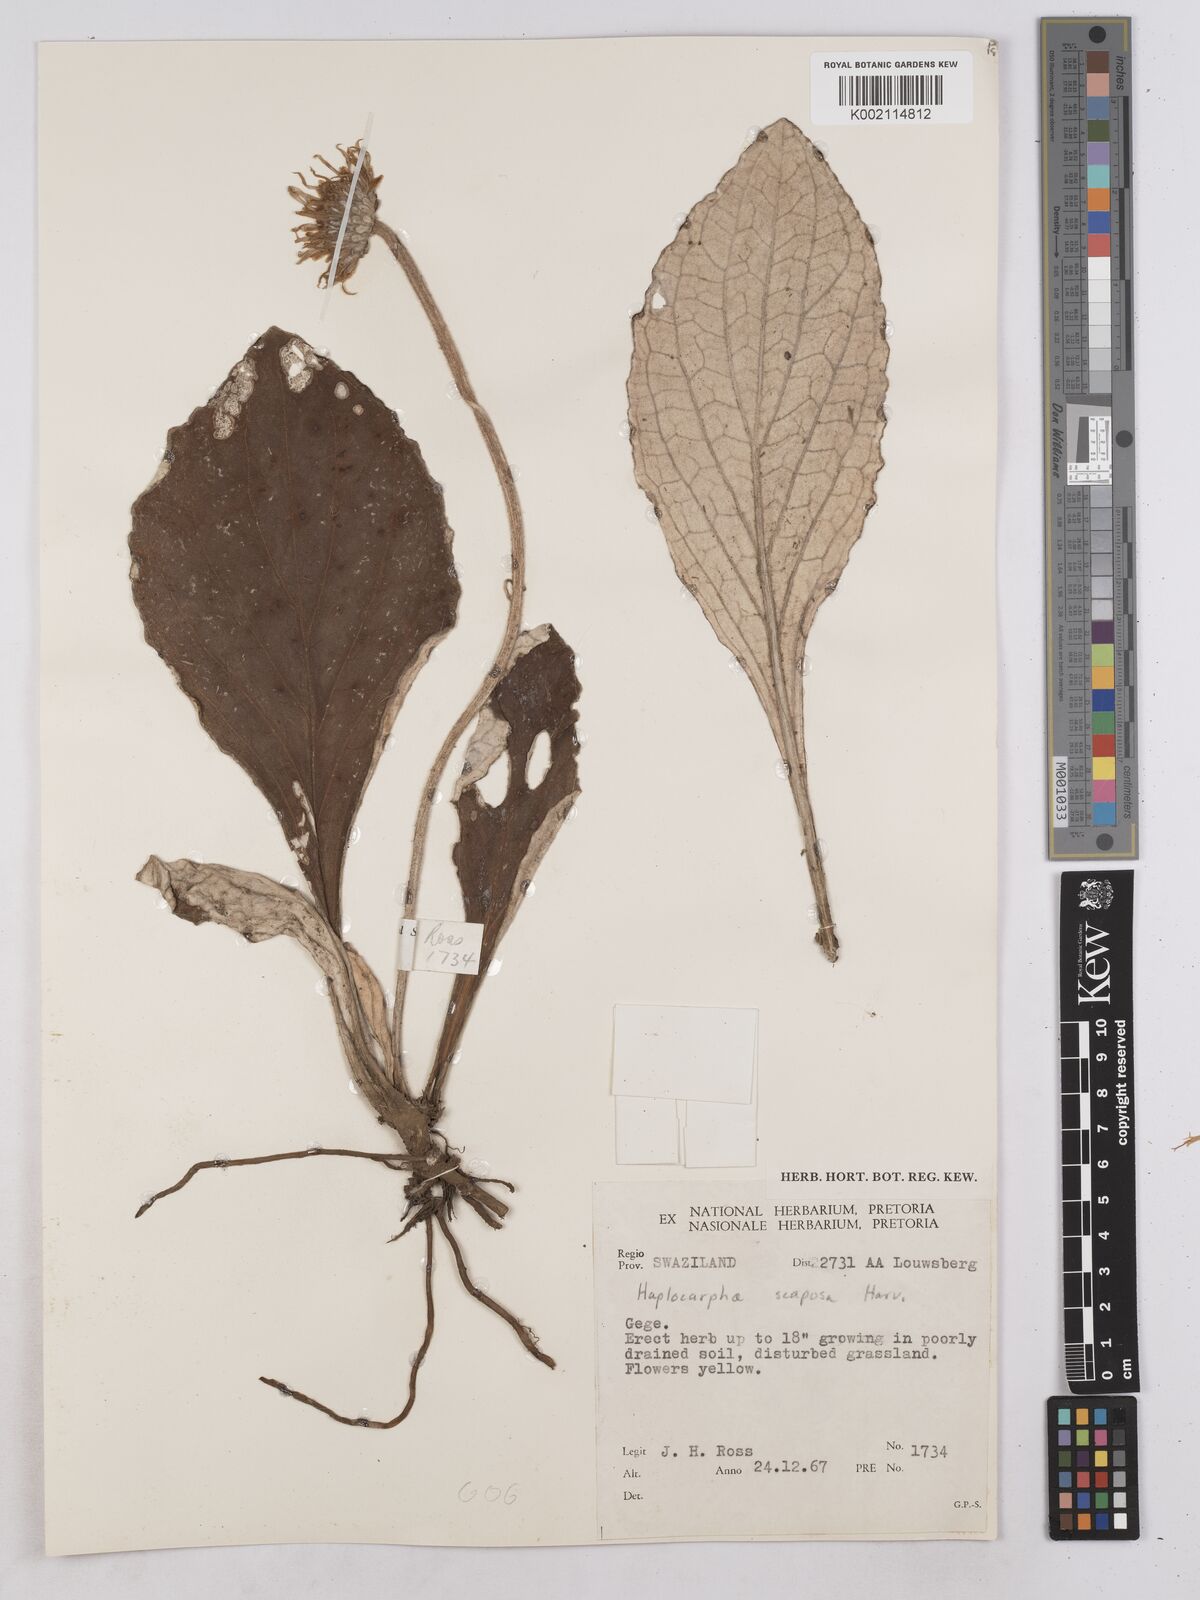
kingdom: Plantae
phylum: Tracheophyta
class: Magnoliopsida
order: Asterales
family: Asteraceae
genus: Haplocarpha
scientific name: Haplocarpha scaposa
